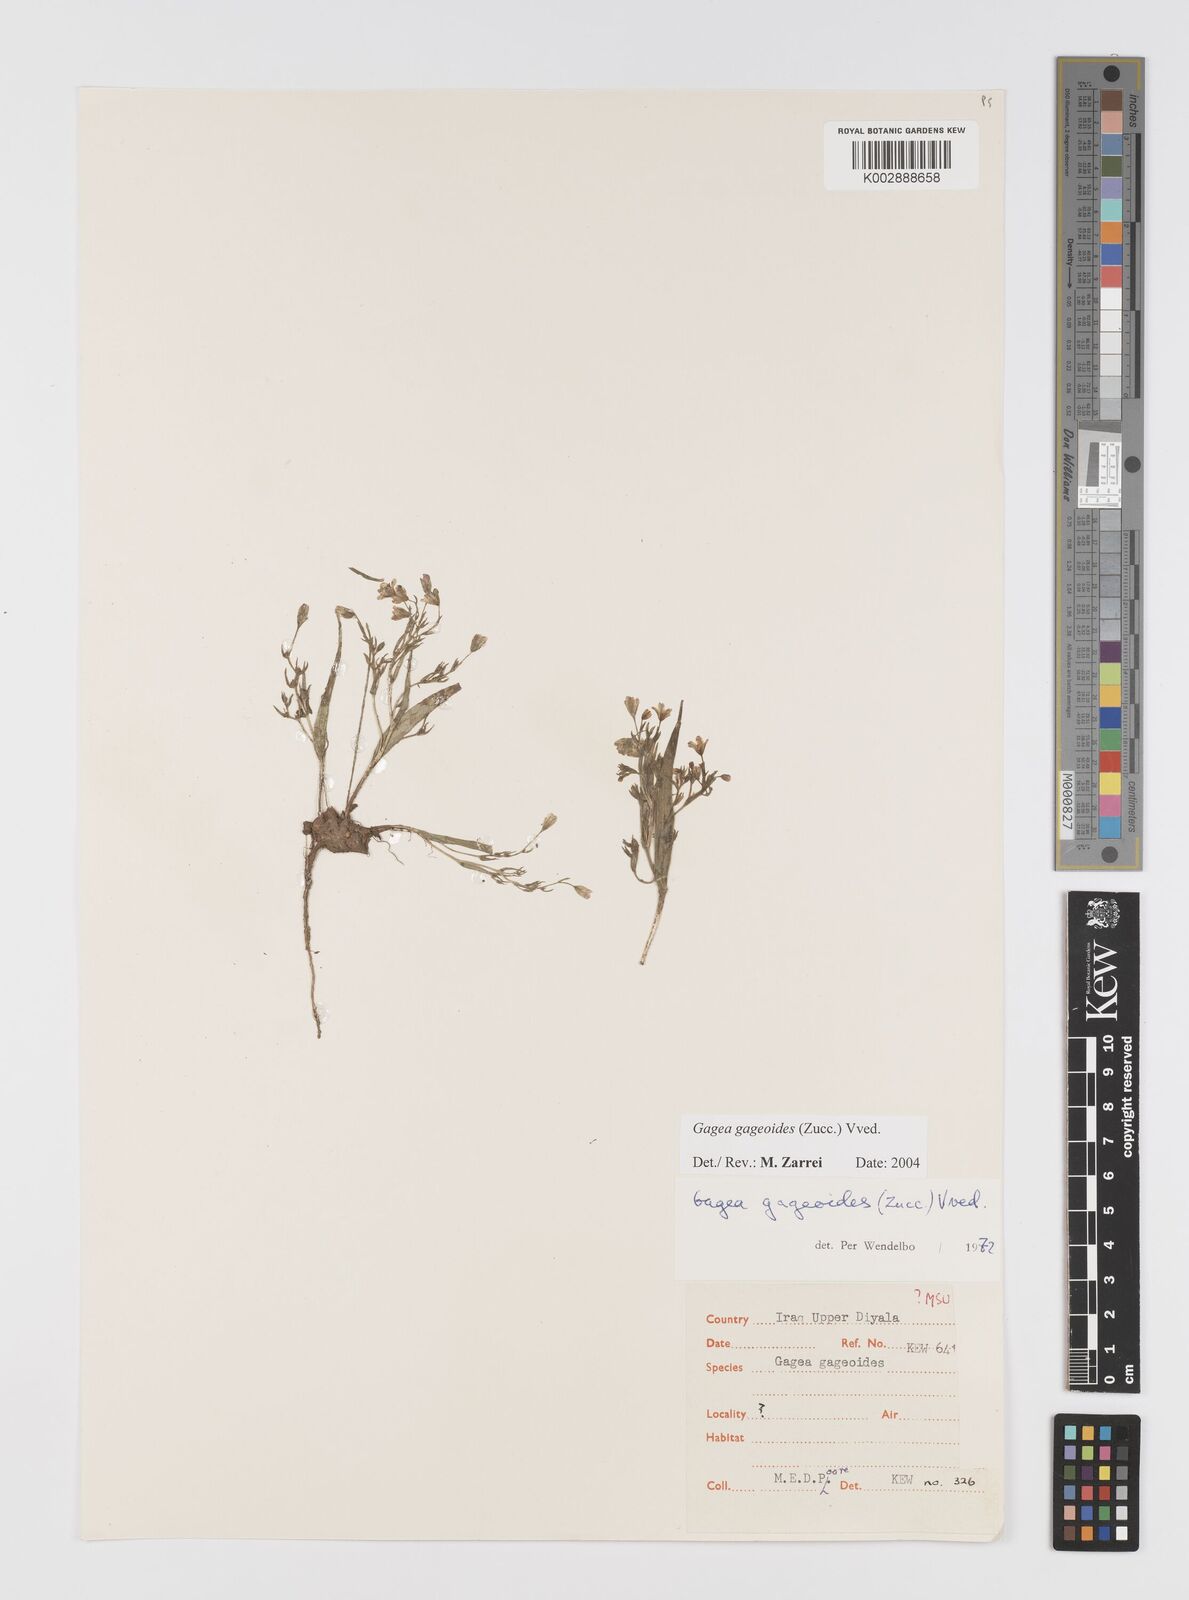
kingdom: Plantae
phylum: Tracheophyta
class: Liliopsida
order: Liliales
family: Liliaceae
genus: Gagea
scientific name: Gagea gageoides
